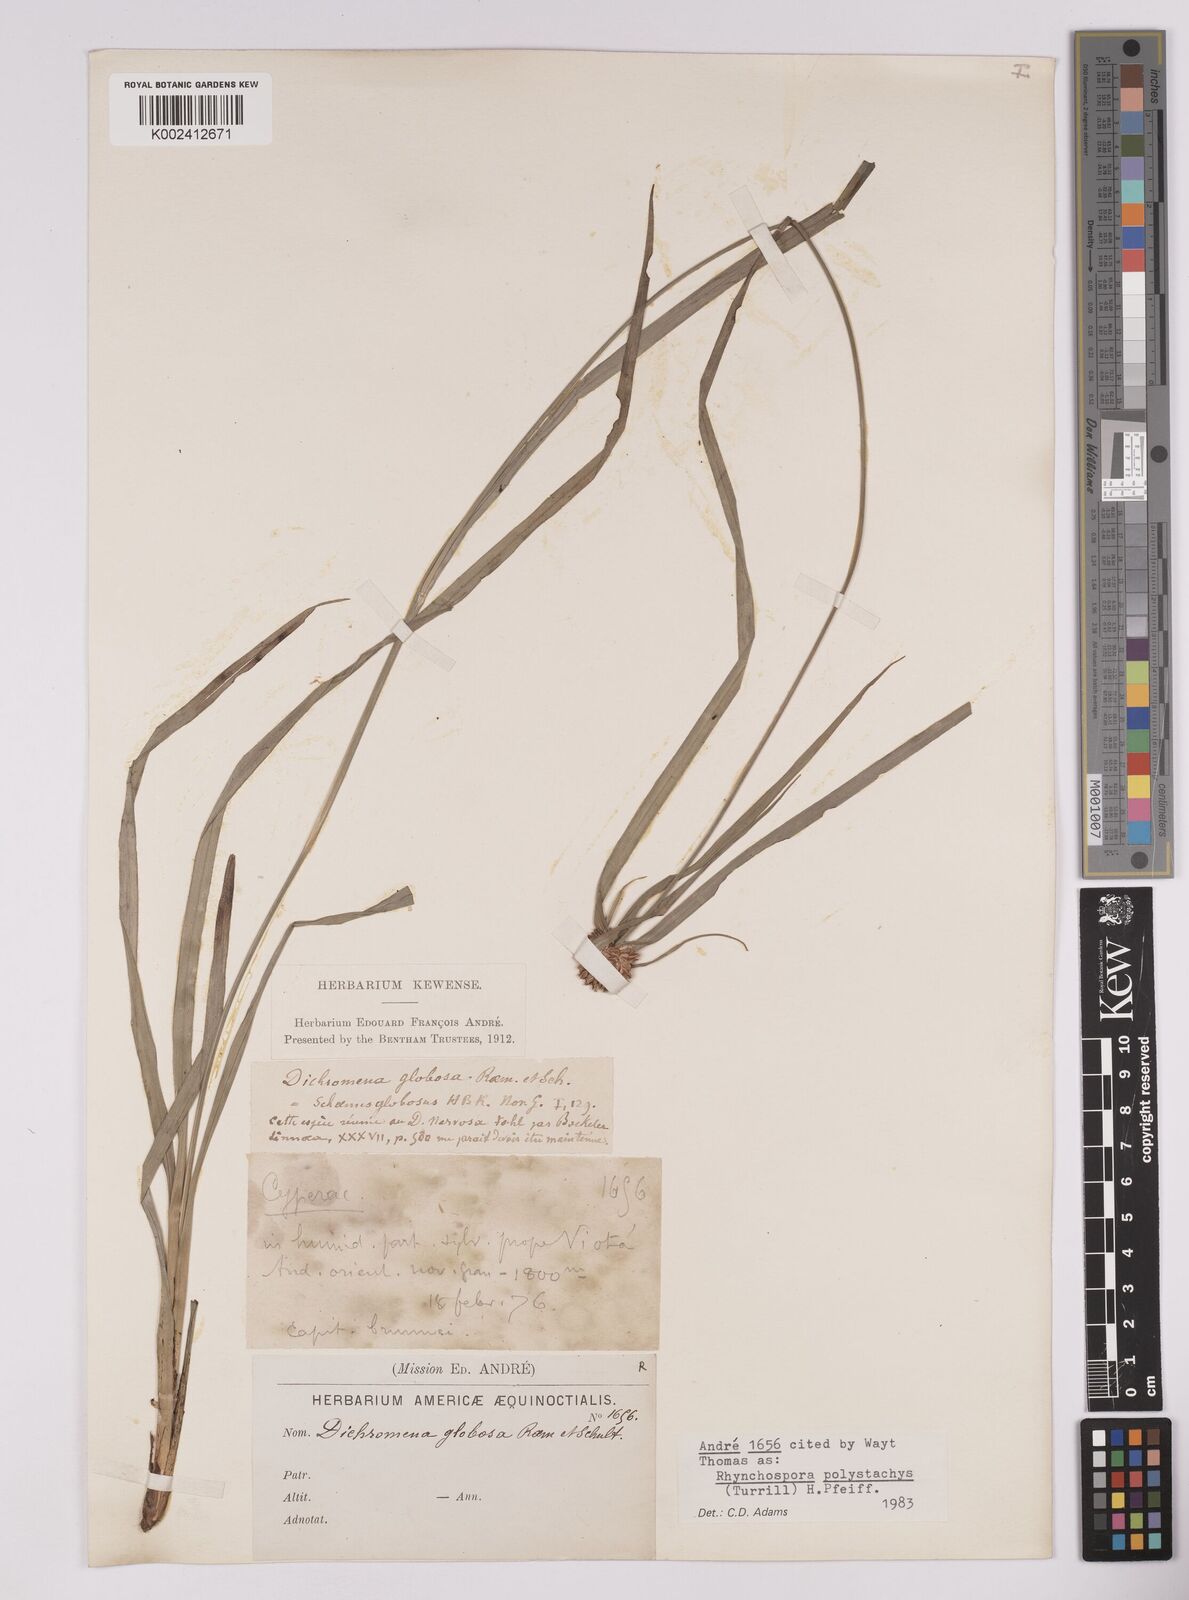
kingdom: Plantae
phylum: Tracheophyta
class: Liliopsida
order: Poales
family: Cyperaceae
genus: Rhynchospora
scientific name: Rhynchospora polystachys
